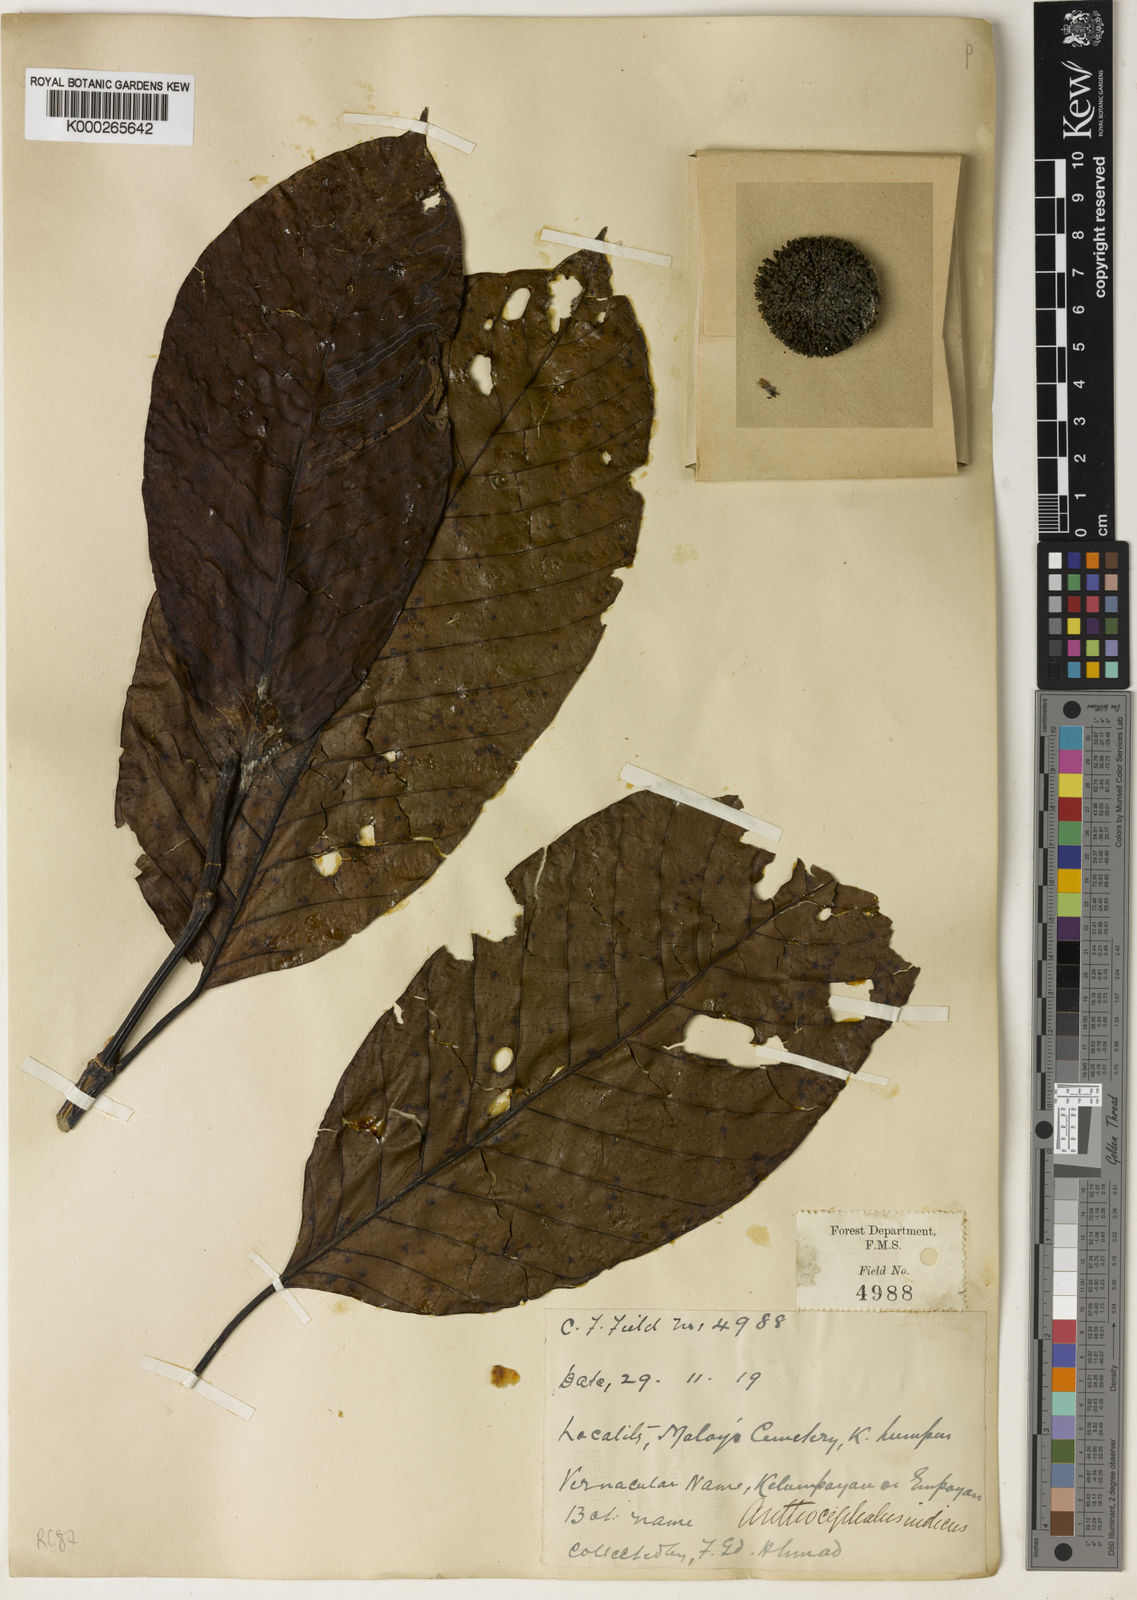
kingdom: Plantae
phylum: Tracheophyta
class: Magnoliopsida
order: Gentianales
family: Rubiaceae
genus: Neolamarckia
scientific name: Neolamarckia cadamba
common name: Leichhardt-pine
